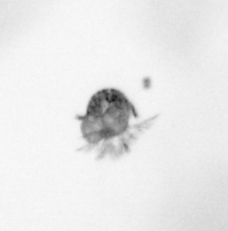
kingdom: Animalia
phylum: Arthropoda
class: Copepoda
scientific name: Copepoda
